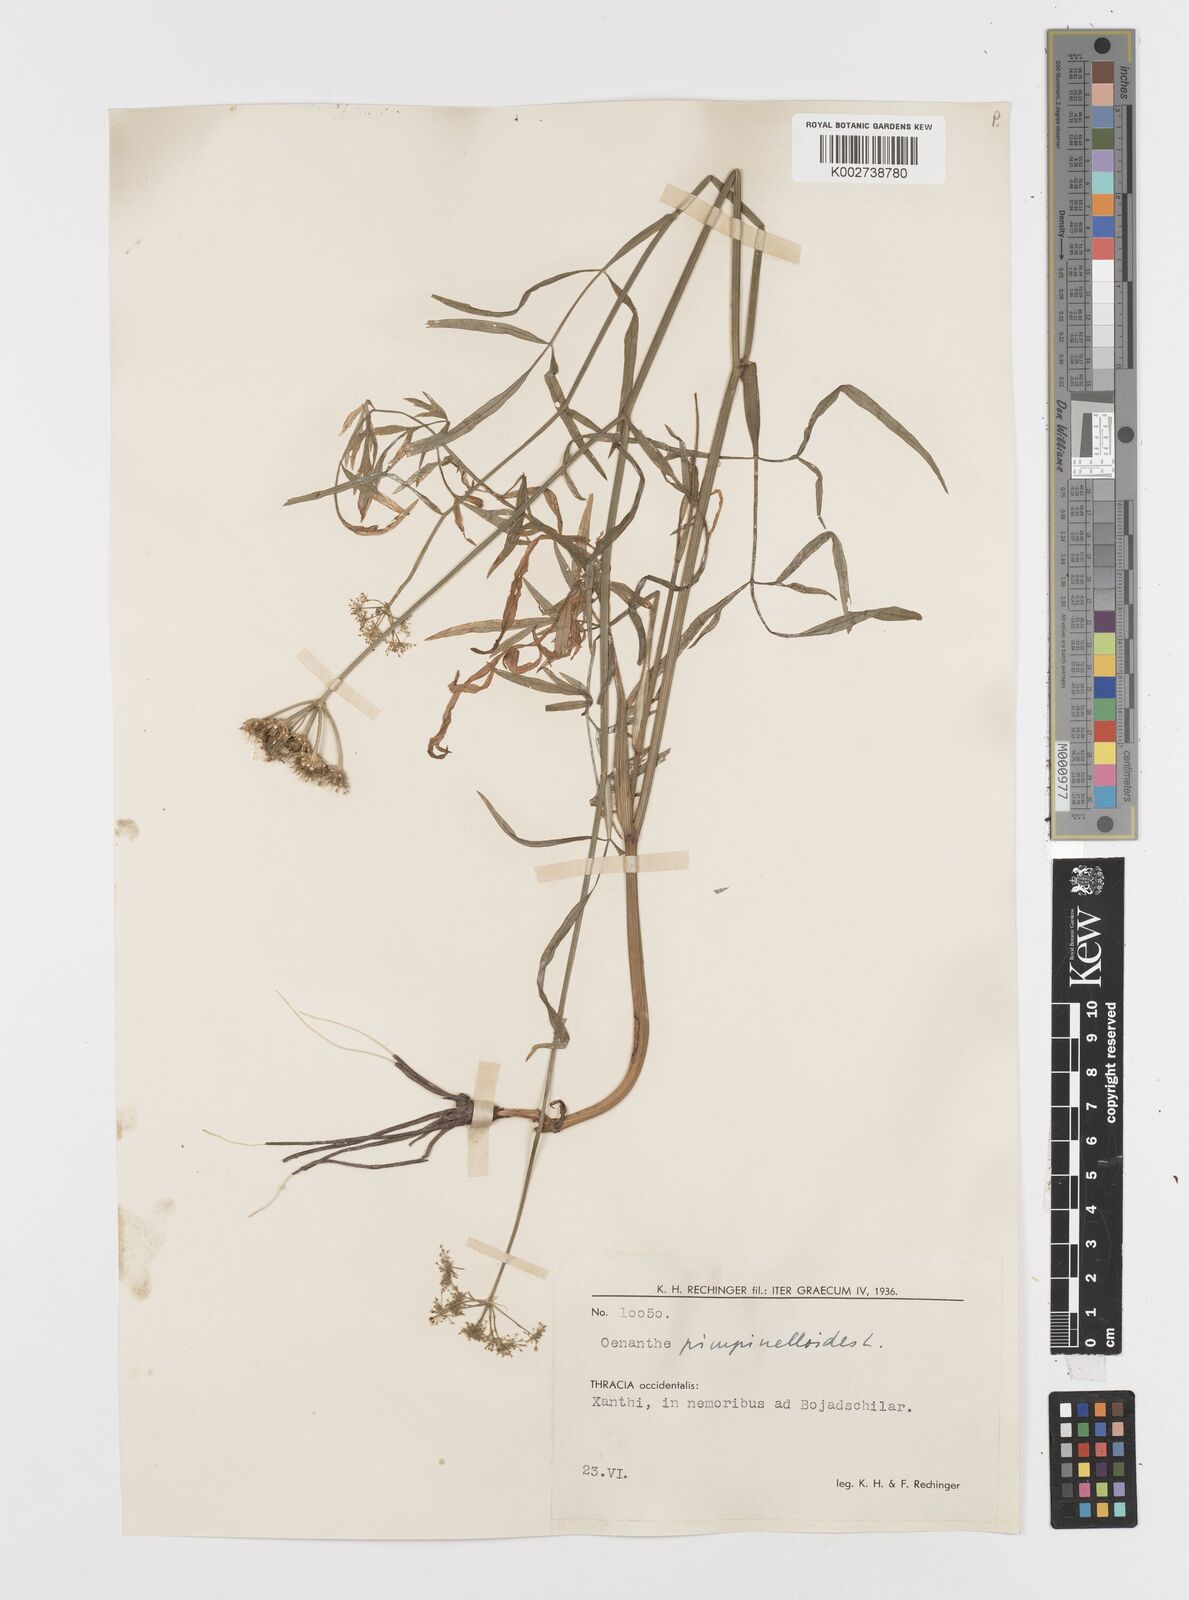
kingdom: Plantae
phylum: Tracheophyta
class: Magnoliopsida
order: Apiales
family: Apiaceae
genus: Oenanthe
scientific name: Oenanthe pimpinelloides
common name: Corky-fruited water-dropwort
